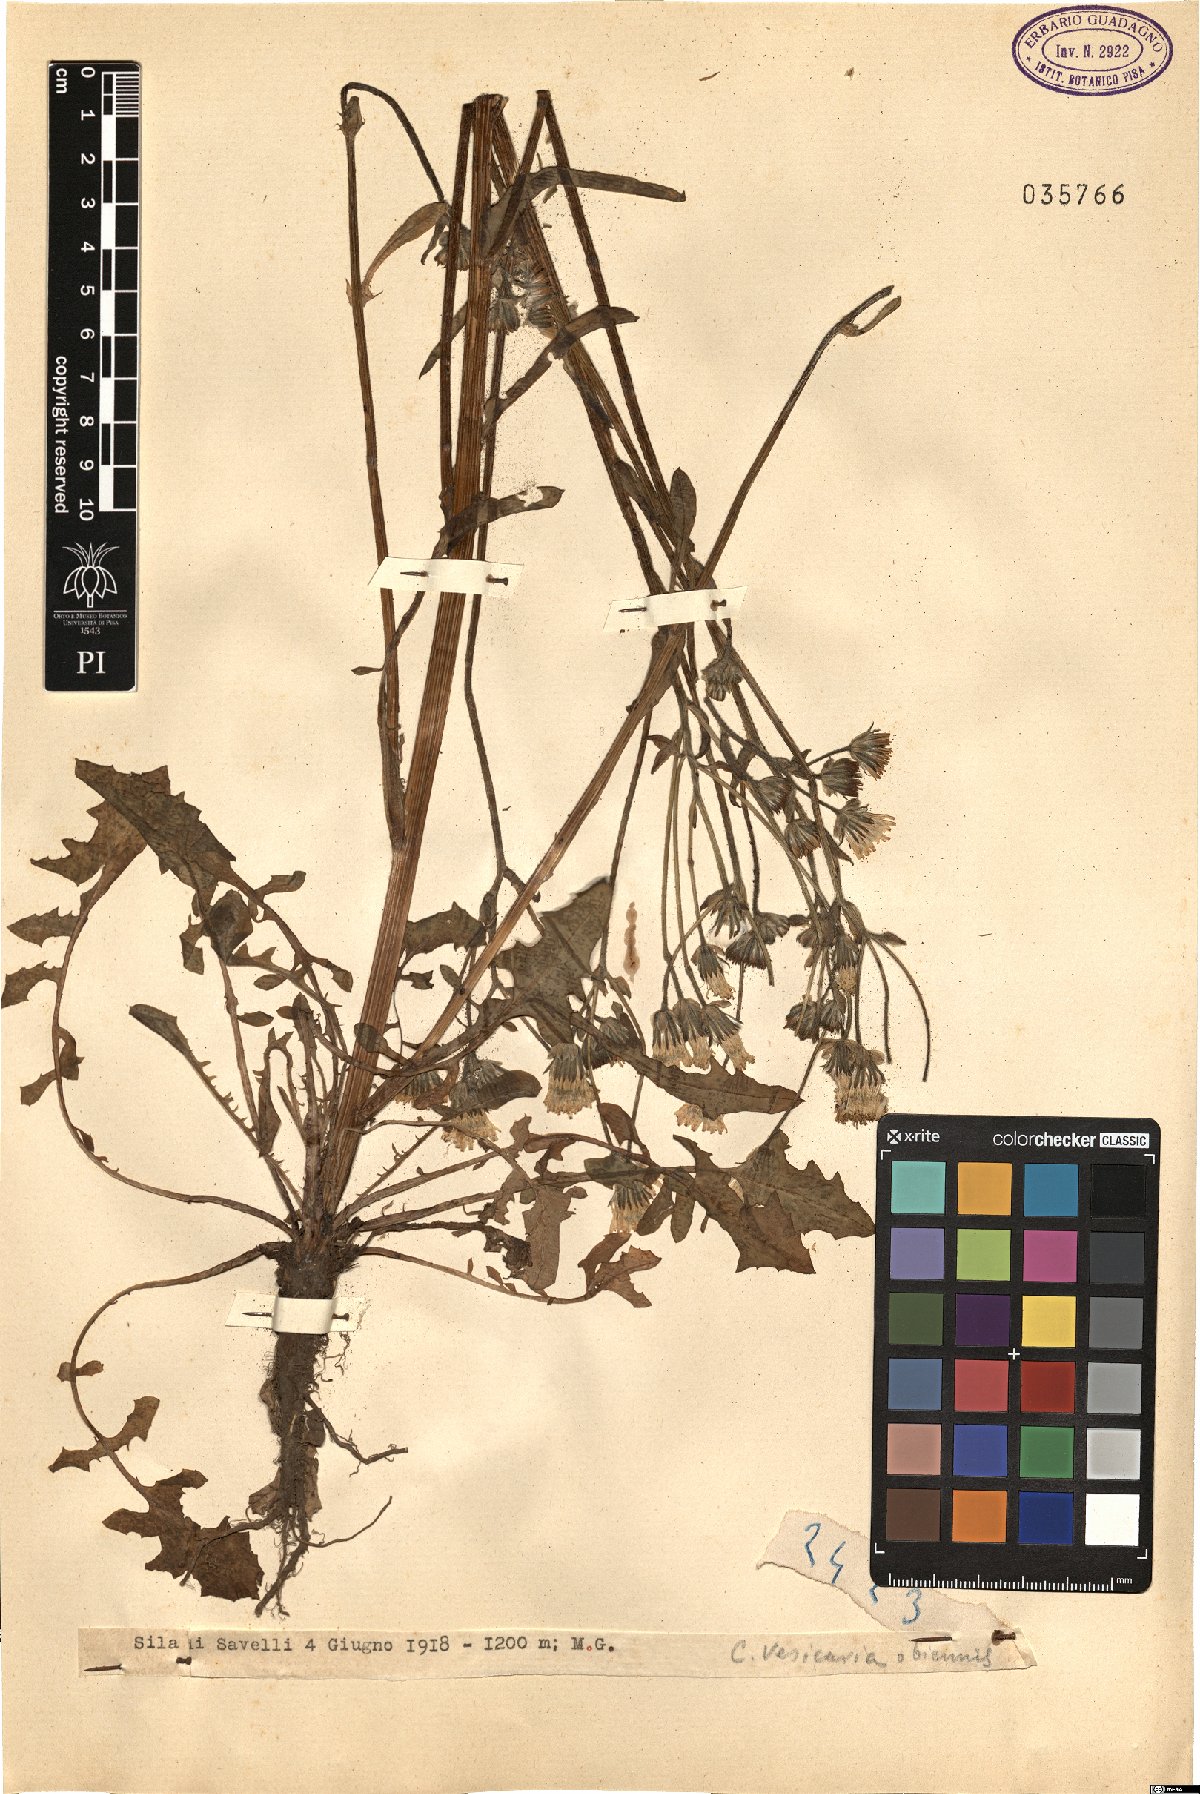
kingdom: Plantae
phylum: Tracheophyta
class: Magnoliopsida
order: Asterales
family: Asteraceae
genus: Crepis
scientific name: Crepis vesicaria
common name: Beaked hawksbeard
